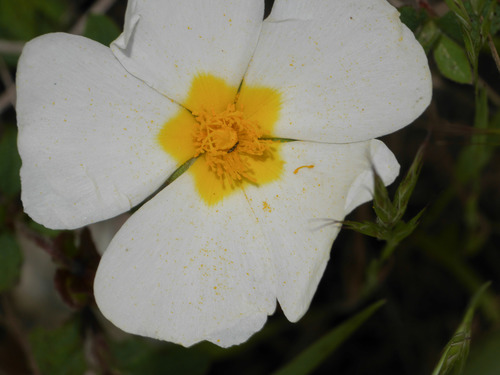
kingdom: Plantae
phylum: Tracheophyta
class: Magnoliopsida
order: Malvales
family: Cistaceae
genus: Cistus
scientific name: Cistus salviifolius
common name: Salvia cistus
